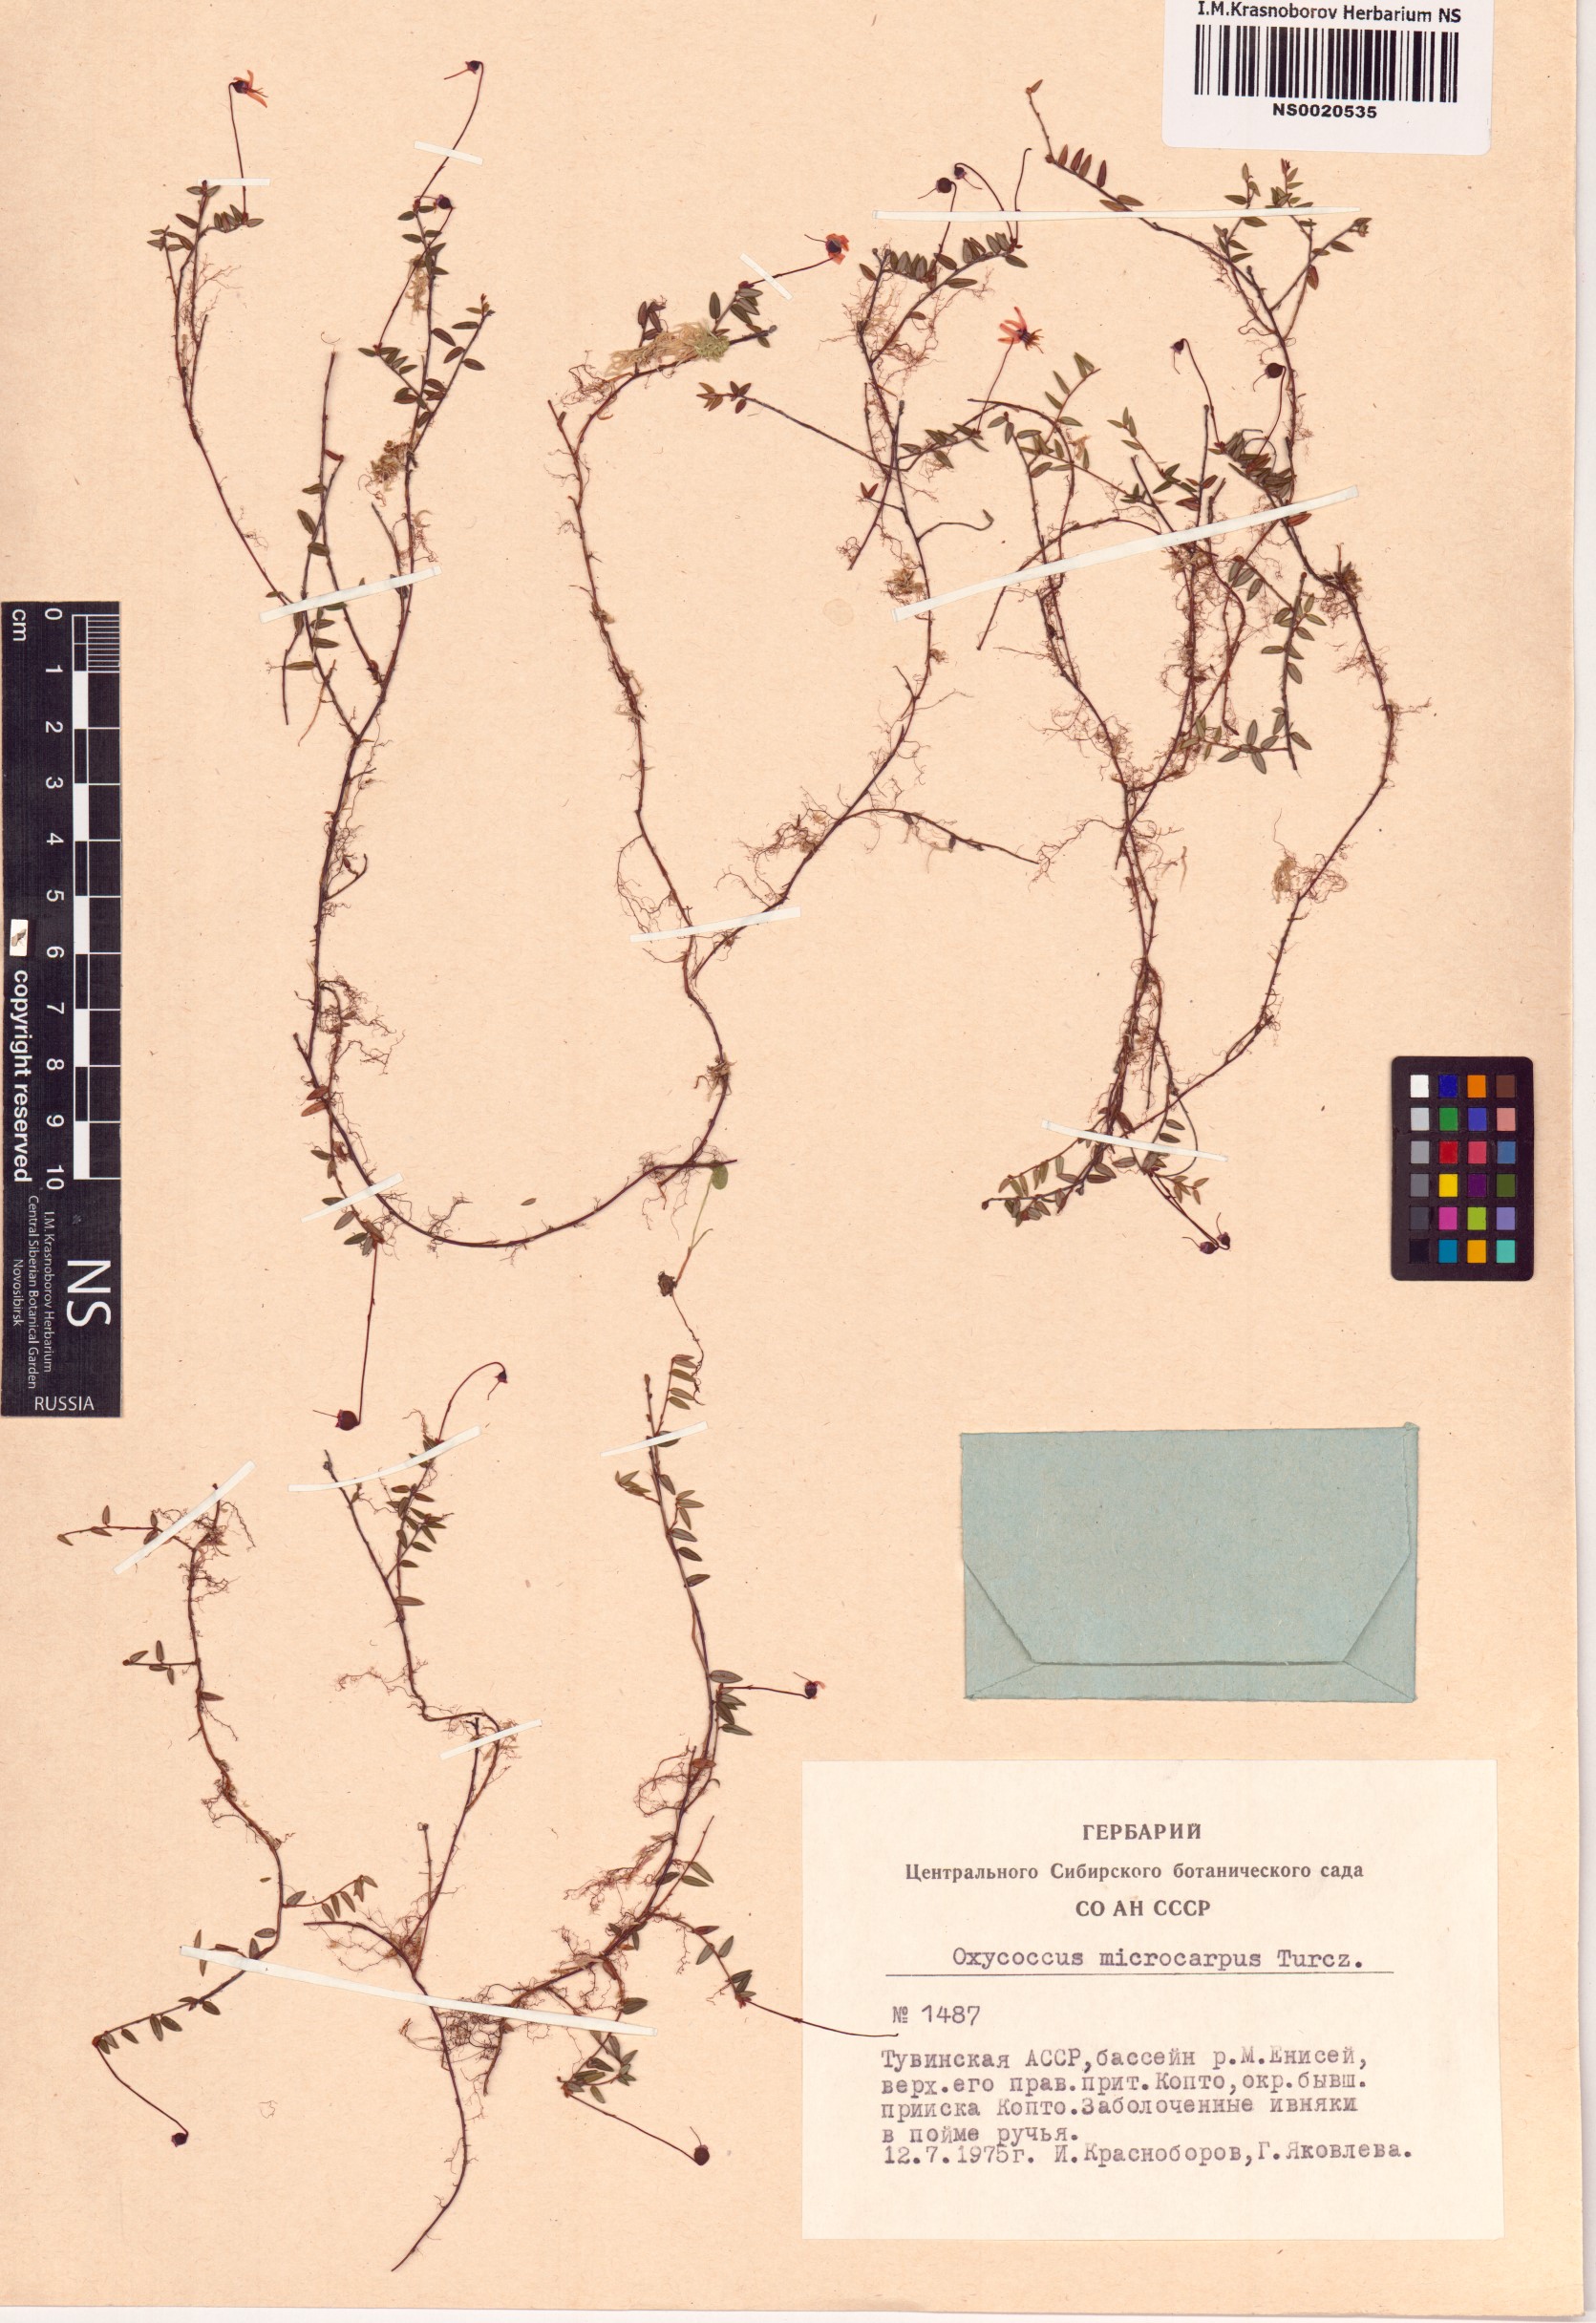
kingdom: Plantae
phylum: Tracheophyta
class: Magnoliopsida
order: Ericales
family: Ericaceae
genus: Vaccinium
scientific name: Vaccinium microcarpum
